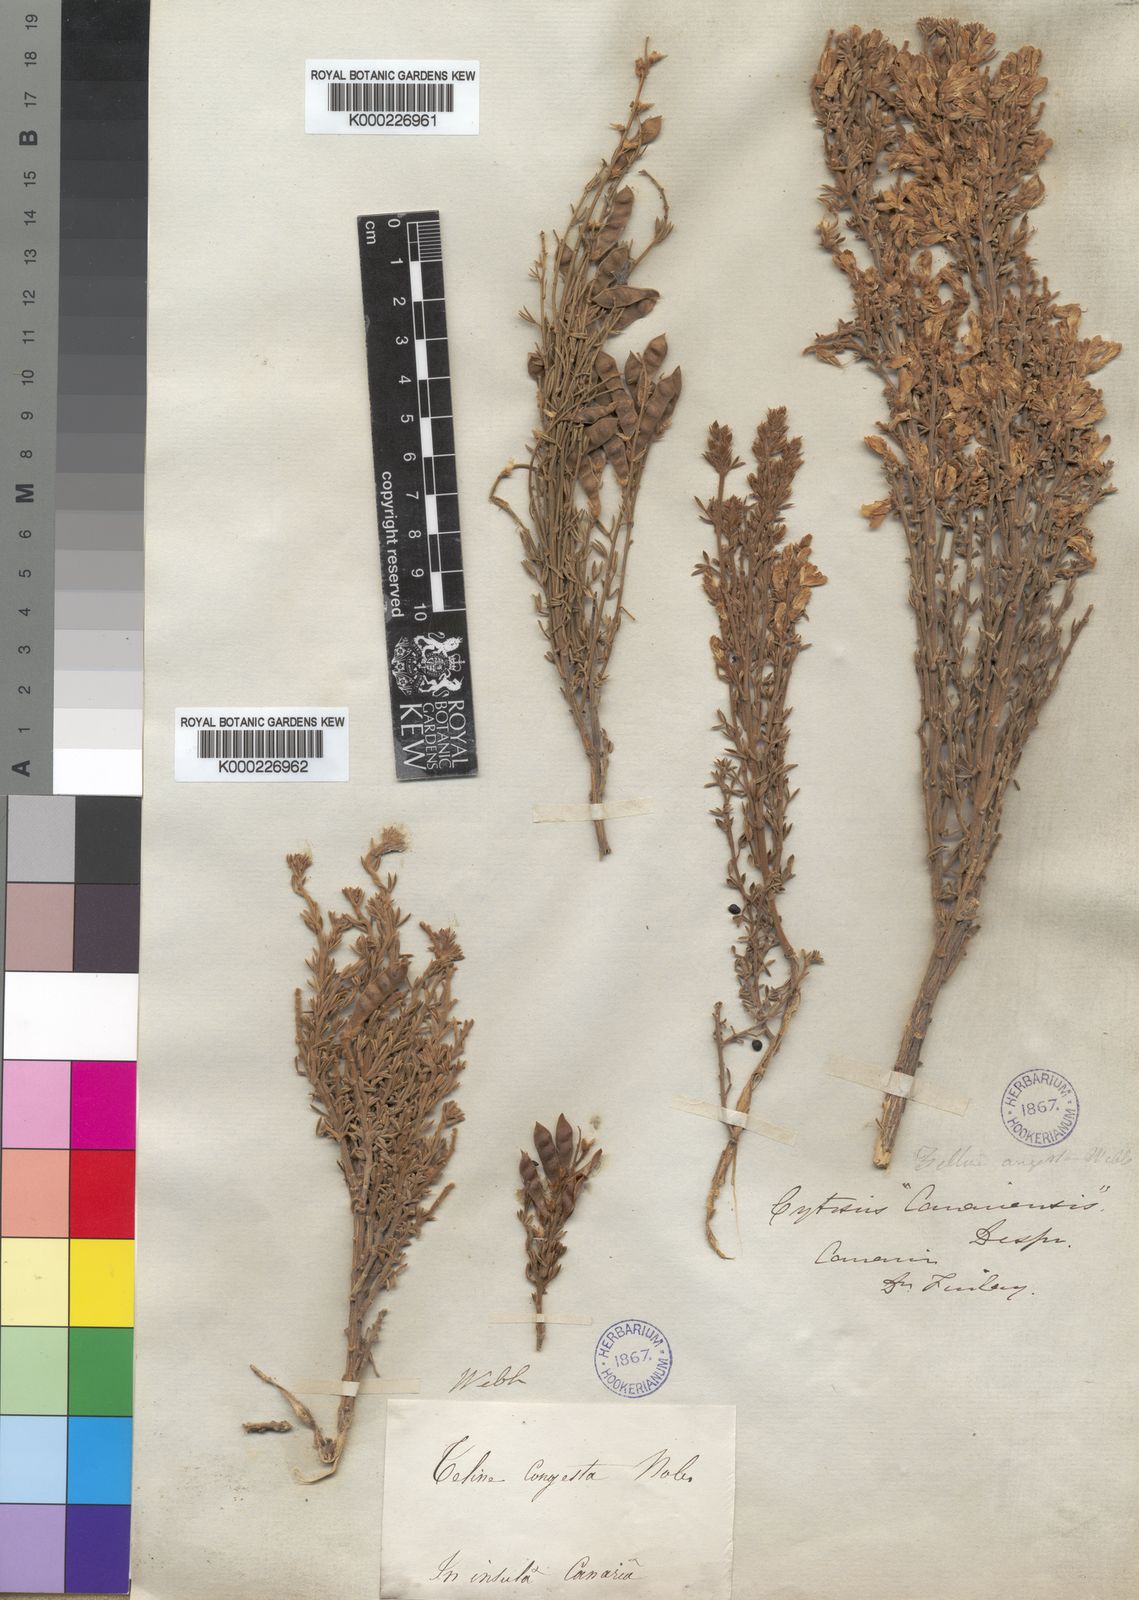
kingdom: Plantae
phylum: Tracheophyta
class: Magnoliopsida
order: Fabales
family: Fabaceae
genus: Genista
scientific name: Genista microphylla
